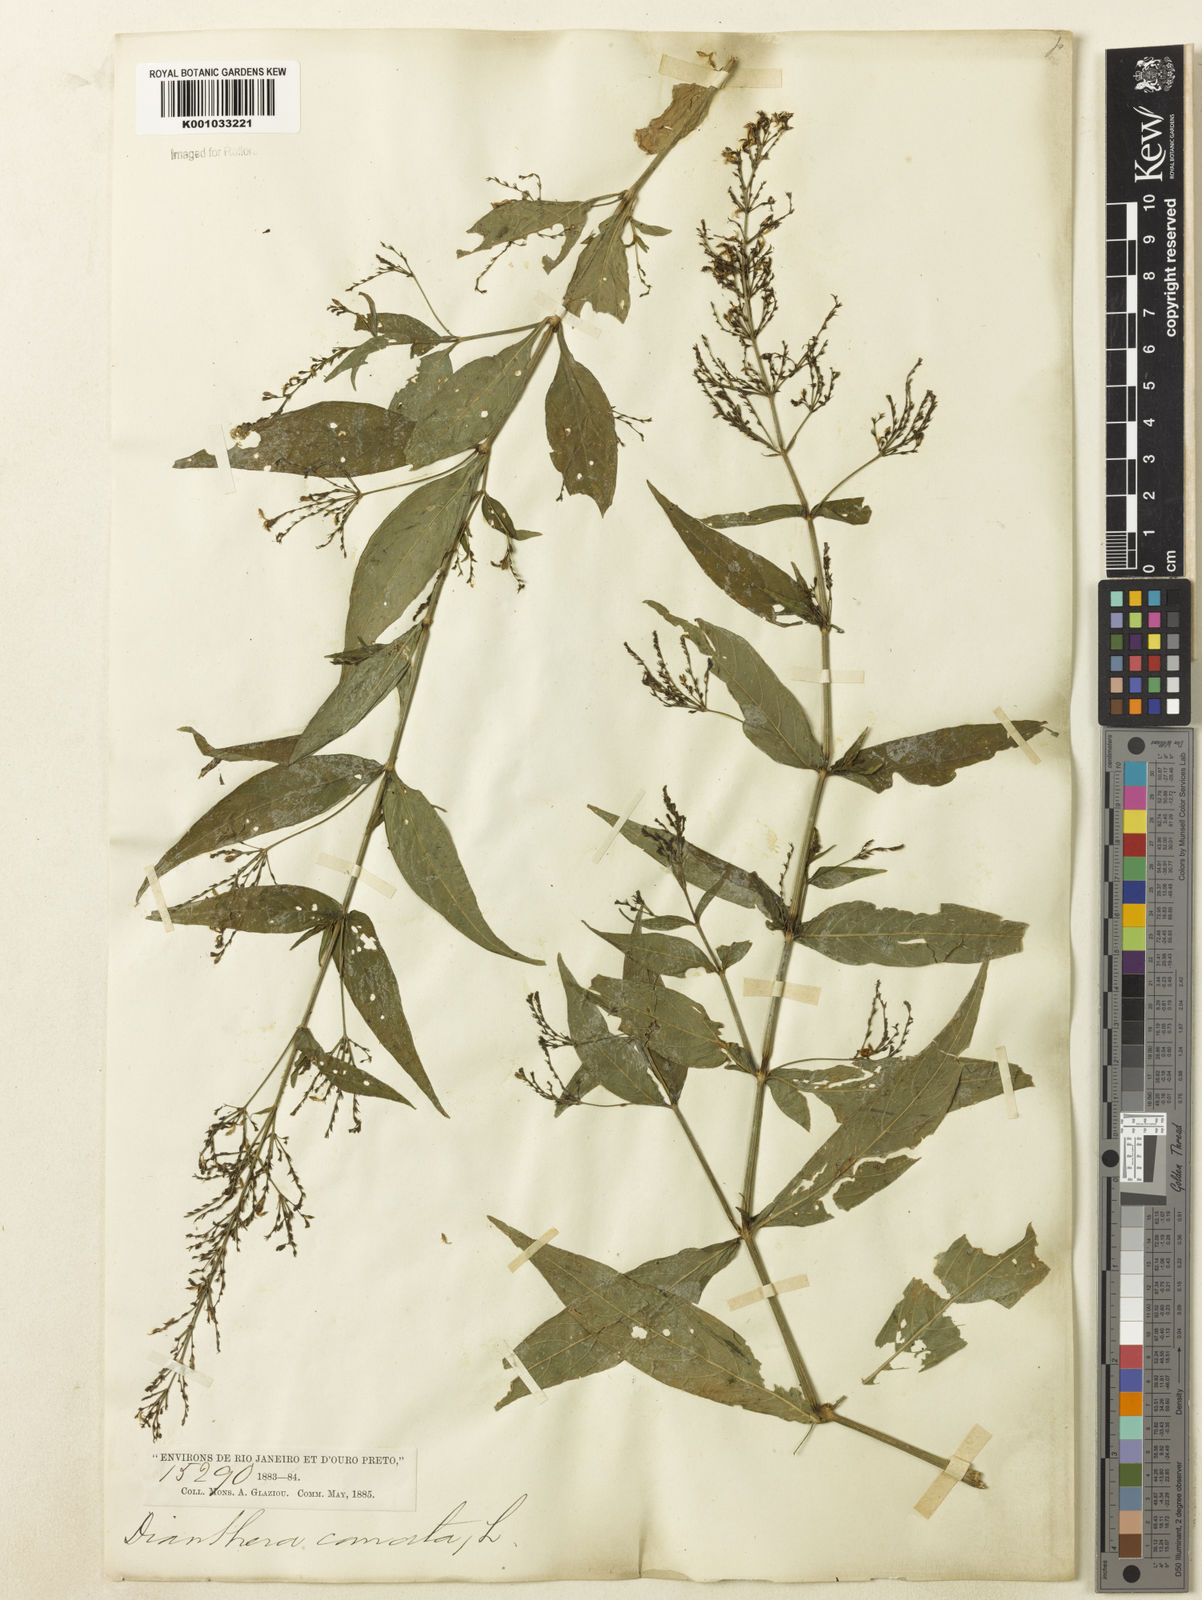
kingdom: Plantae
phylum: Tracheophyta
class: Magnoliopsida
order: Lamiales
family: Acanthaceae
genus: Dianthera
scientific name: Dianthera comata
